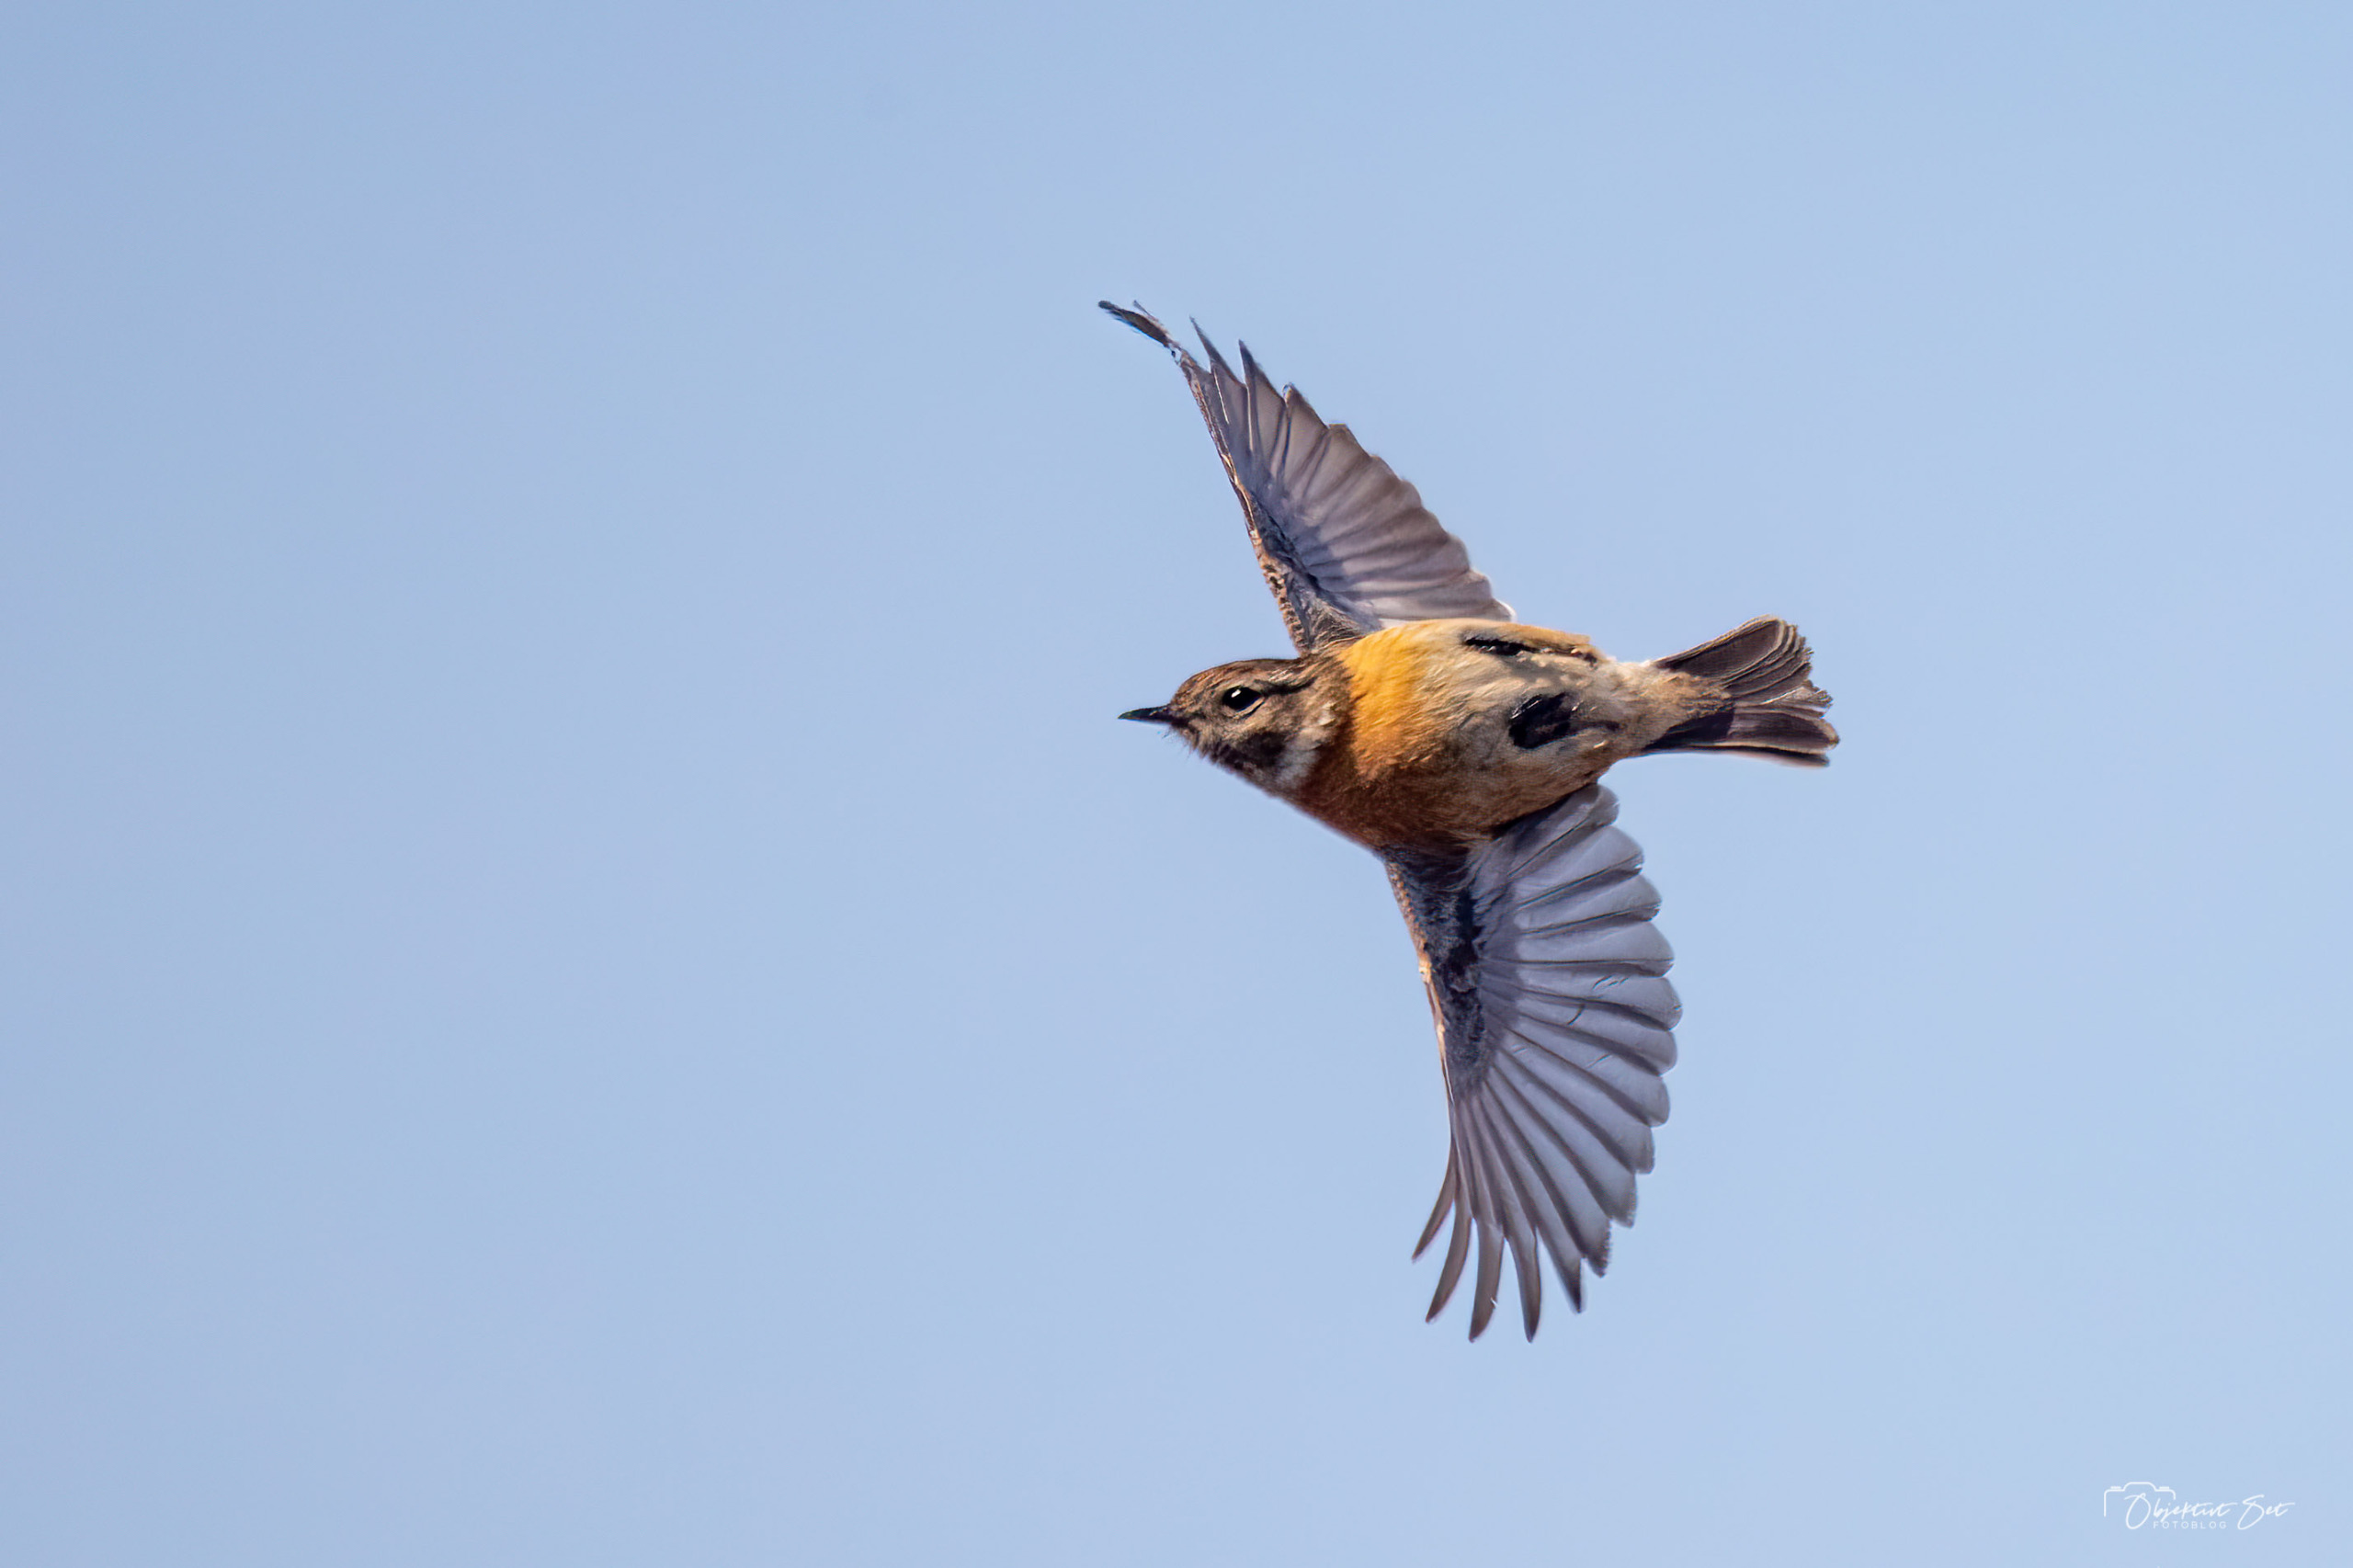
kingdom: Animalia
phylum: Chordata
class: Aves
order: Passeriformes
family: Muscicapidae
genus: Saxicola
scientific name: Saxicola rubicola
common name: Sortstrubet bynkefugl
